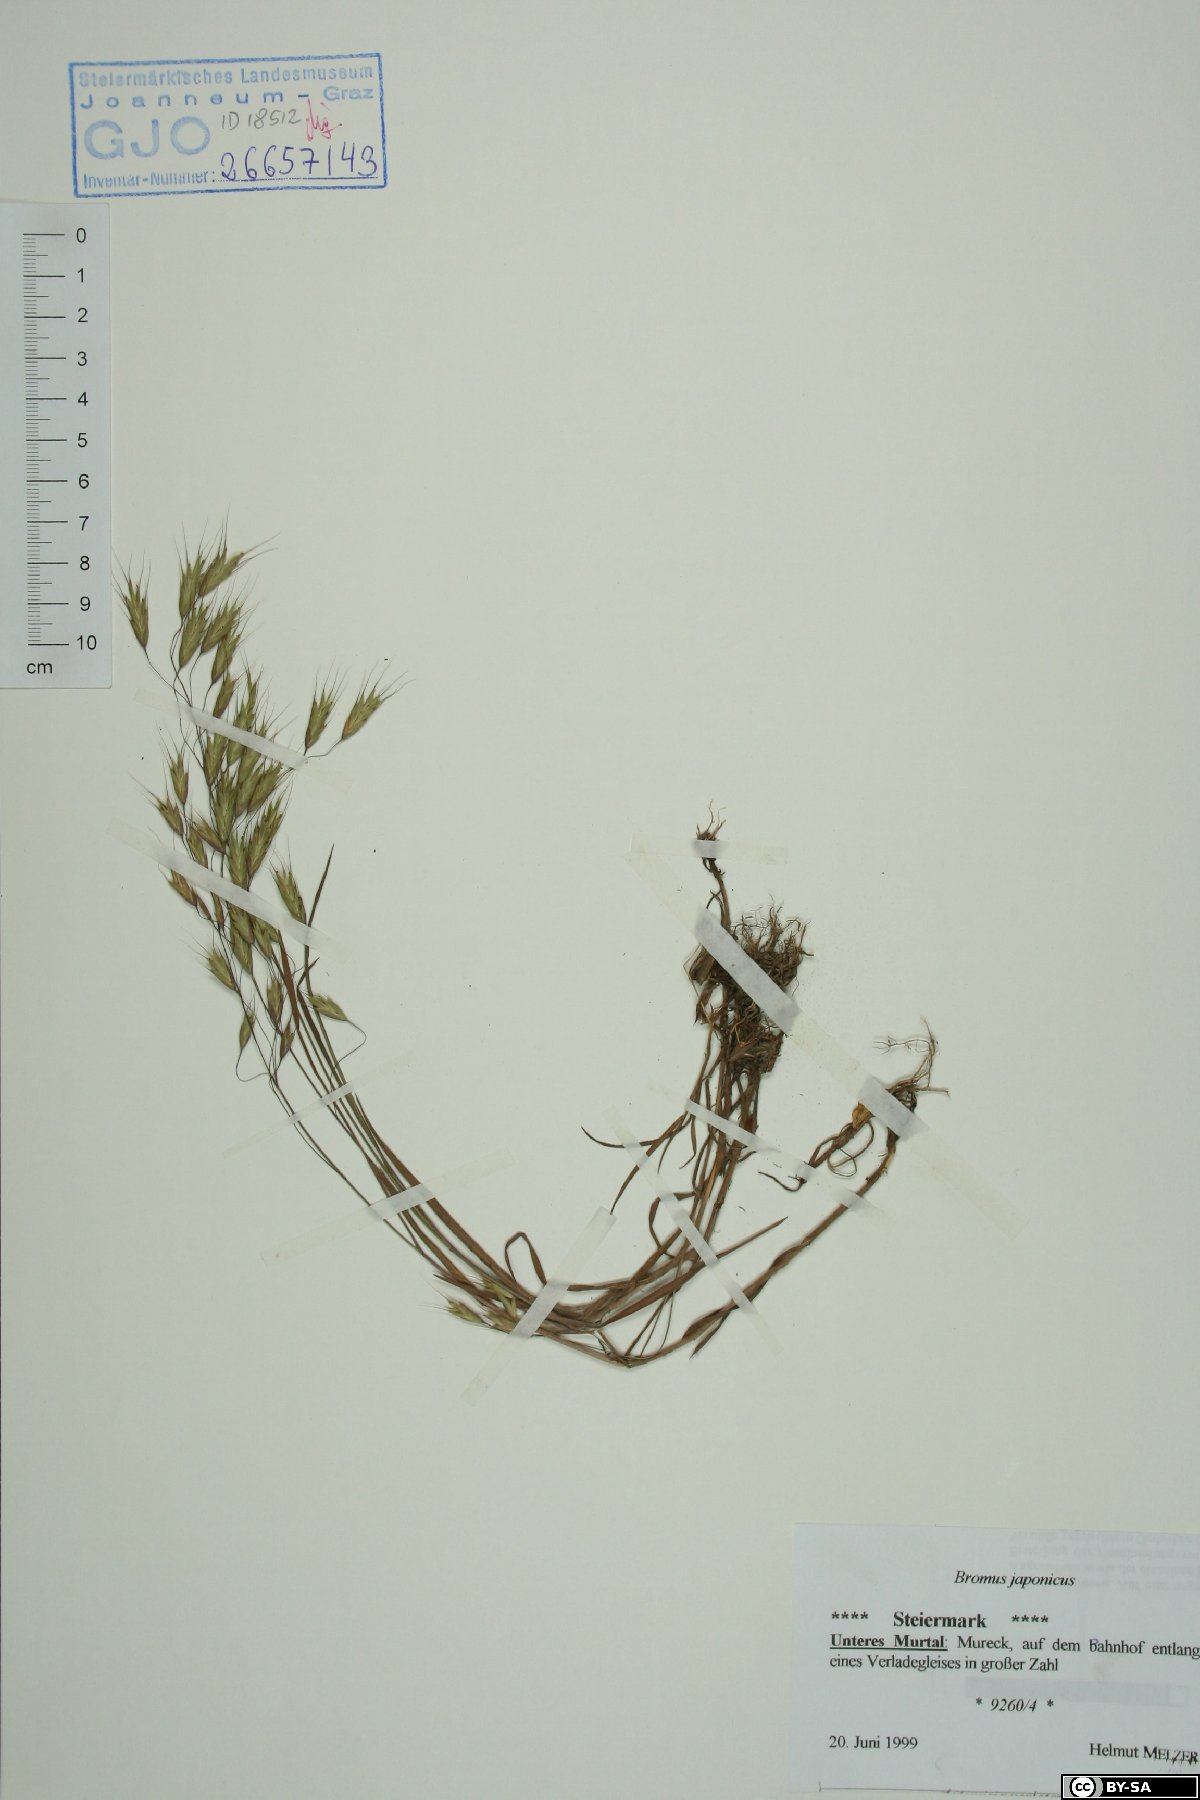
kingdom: Plantae
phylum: Tracheophyta
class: Liliopsida
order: Poales
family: Poaceae
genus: Bromus
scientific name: Bromus japonicus
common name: Japanese brome
